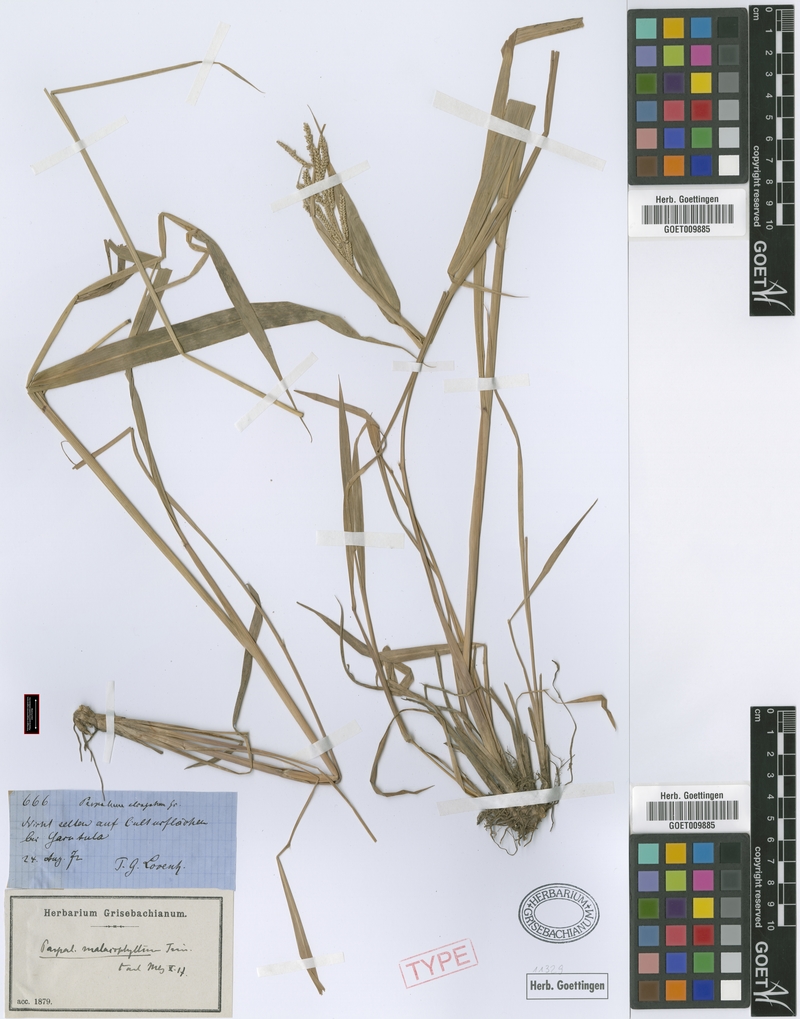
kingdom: Plantae
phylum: Tracheophyta
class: Liliopsida
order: Poales
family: Poaceae
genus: Paspalum
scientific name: Paspalum malacophyllum
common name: Ribbed paspalum
